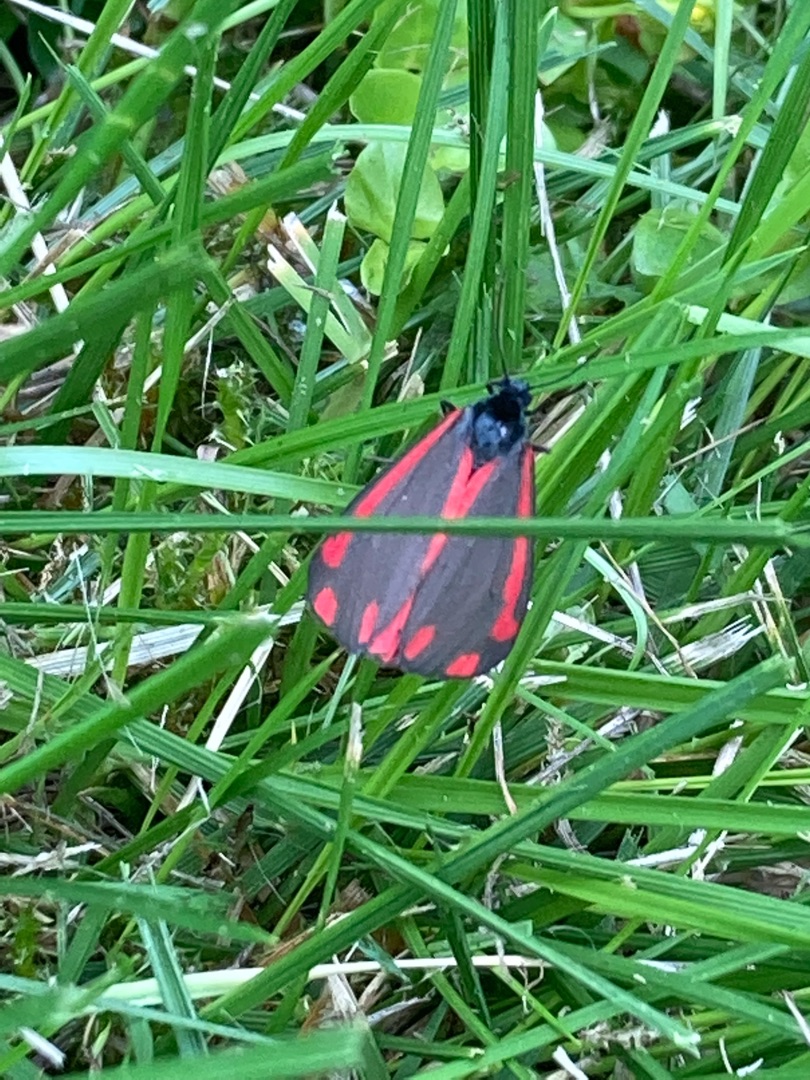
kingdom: Animalia
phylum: Arthropoda
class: Insecta
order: Lepidoptera
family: Erebidae
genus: Tyria
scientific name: Tyria jacobaeae
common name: Blodplet
